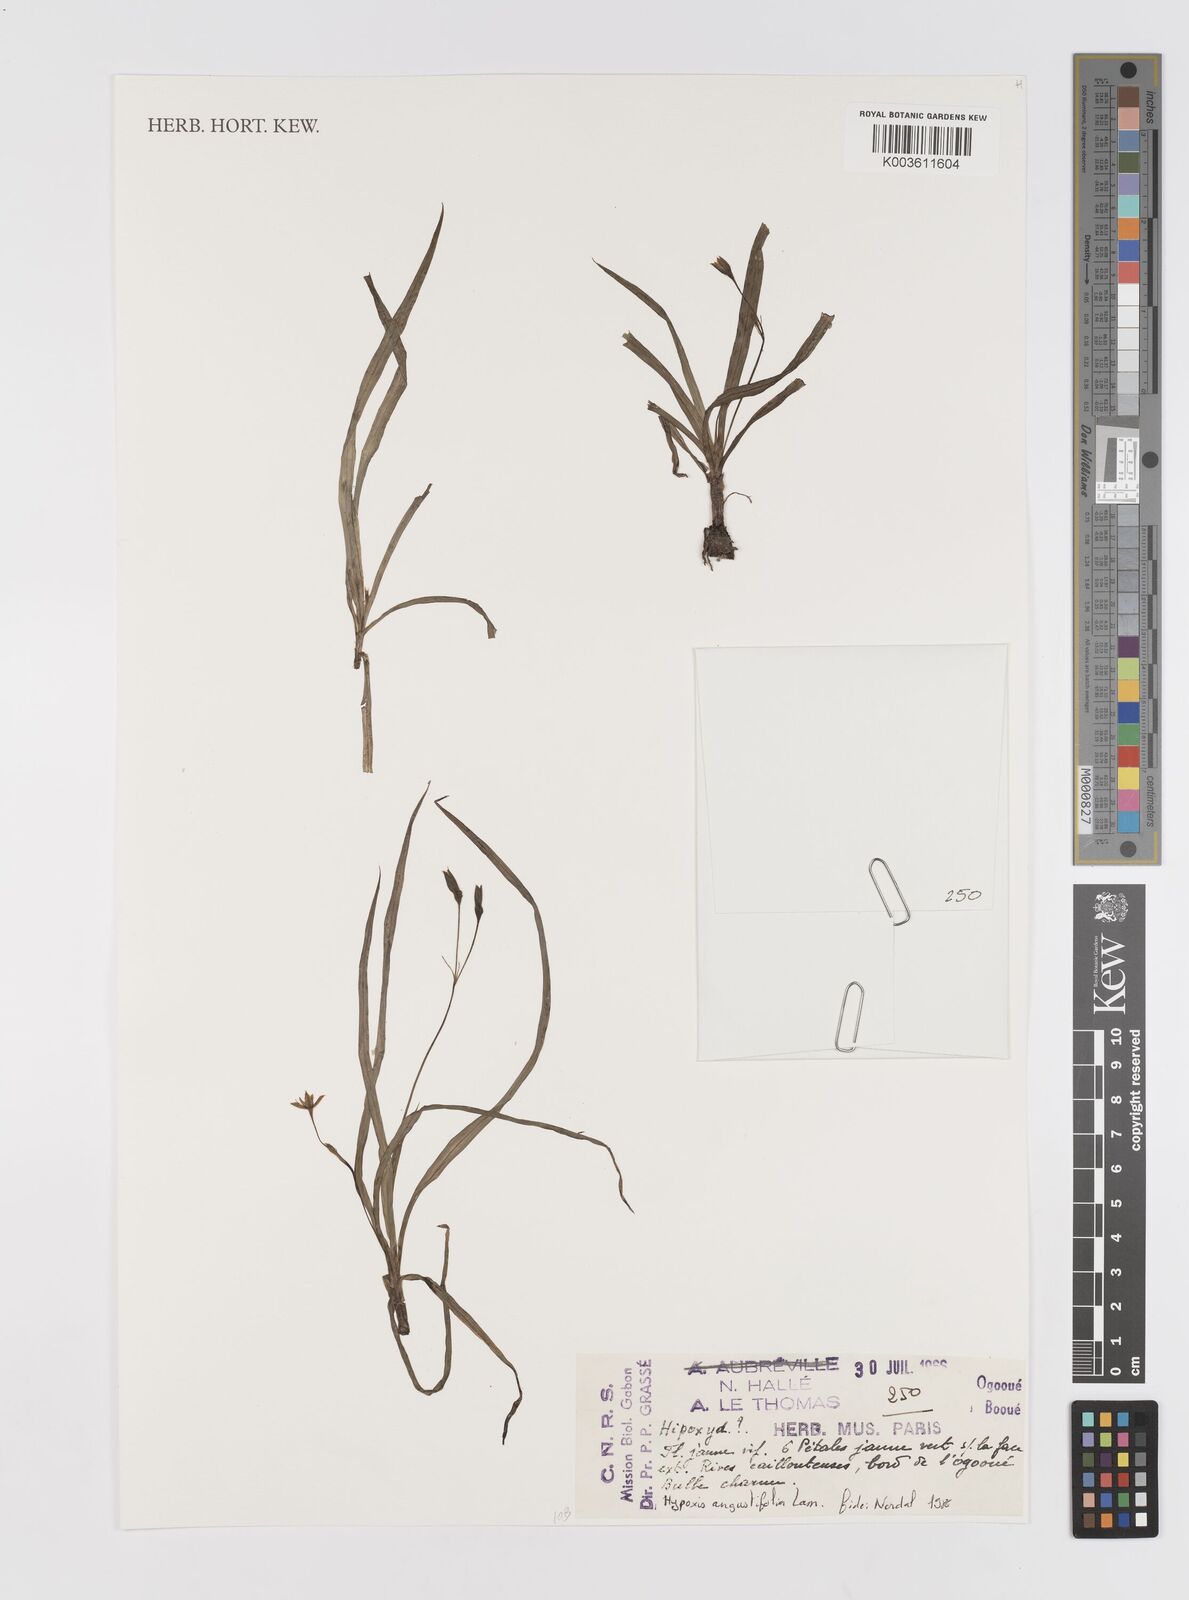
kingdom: Plantae
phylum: Tracheophyta
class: Liliopsida
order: Asparagales
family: Hypoxidaceae
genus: Hypoxis
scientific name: Hypoxis angustifolia
